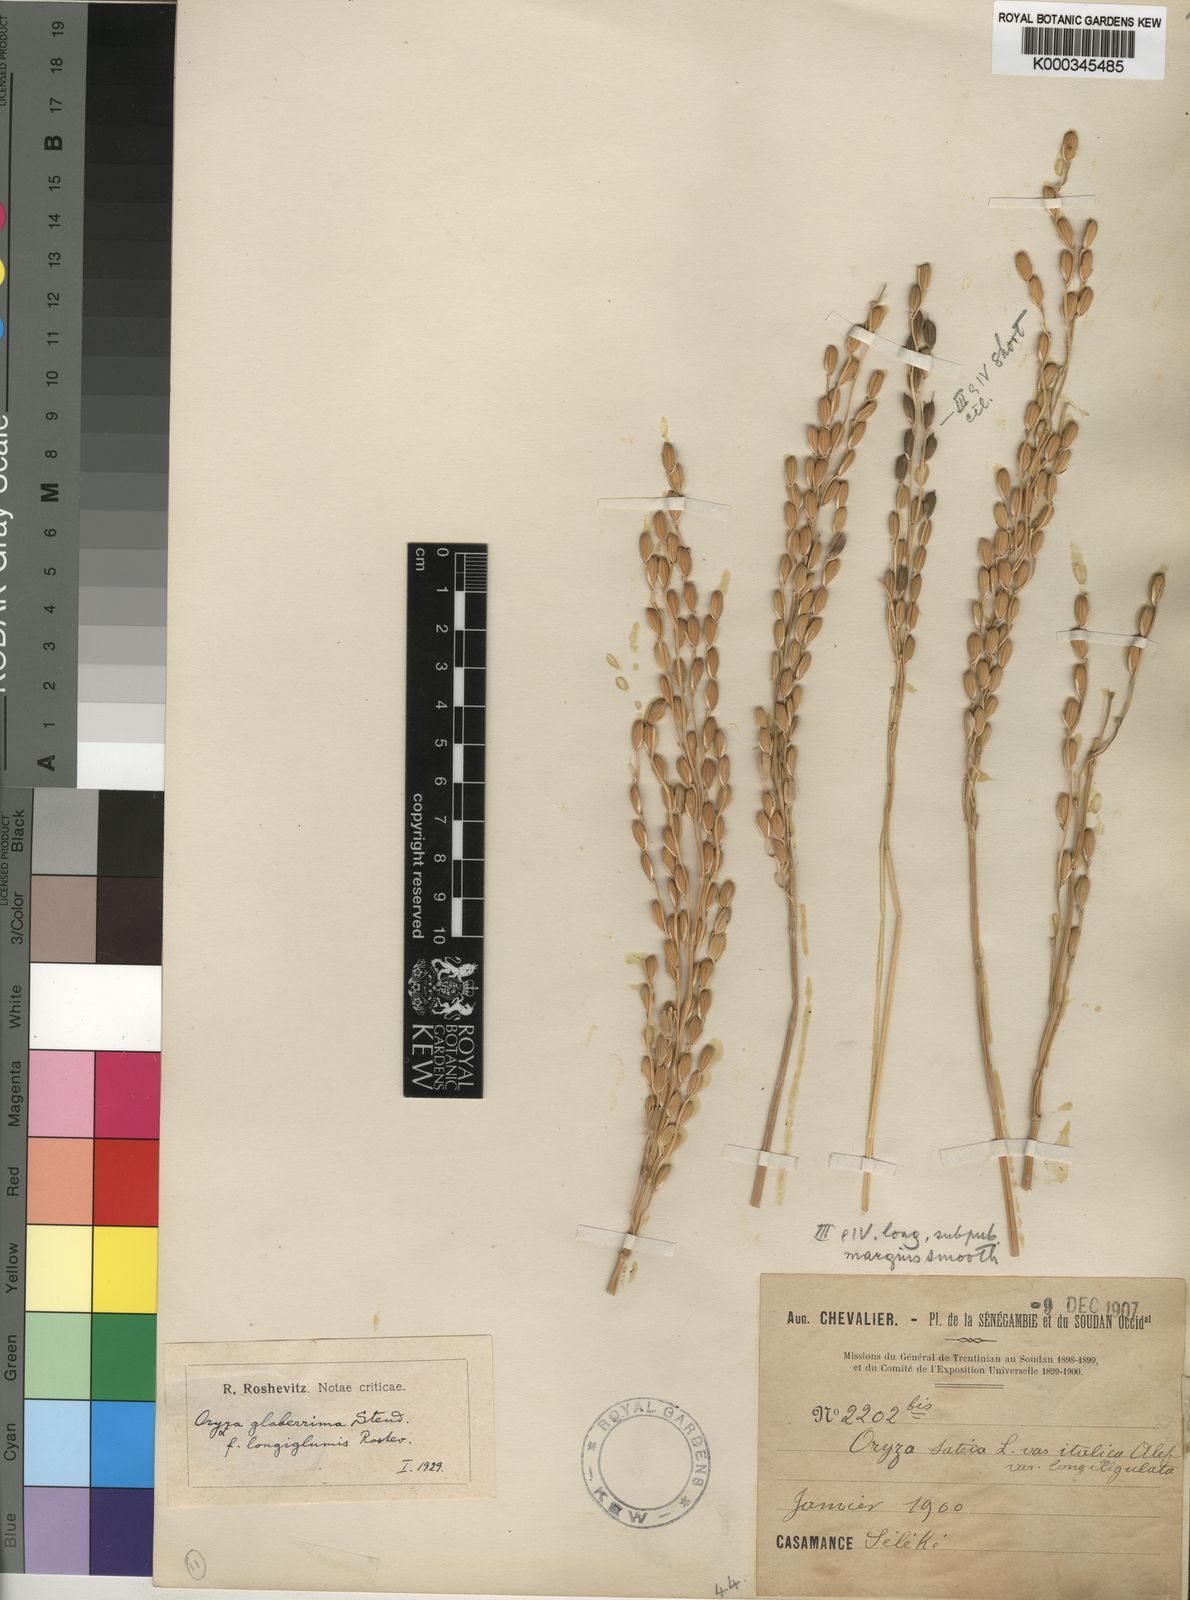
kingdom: Plantae
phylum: Tracheophyta
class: Liliopsida
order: Poales
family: Poaceae
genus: Oryza
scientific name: Oryza glaberrima
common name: African rice
